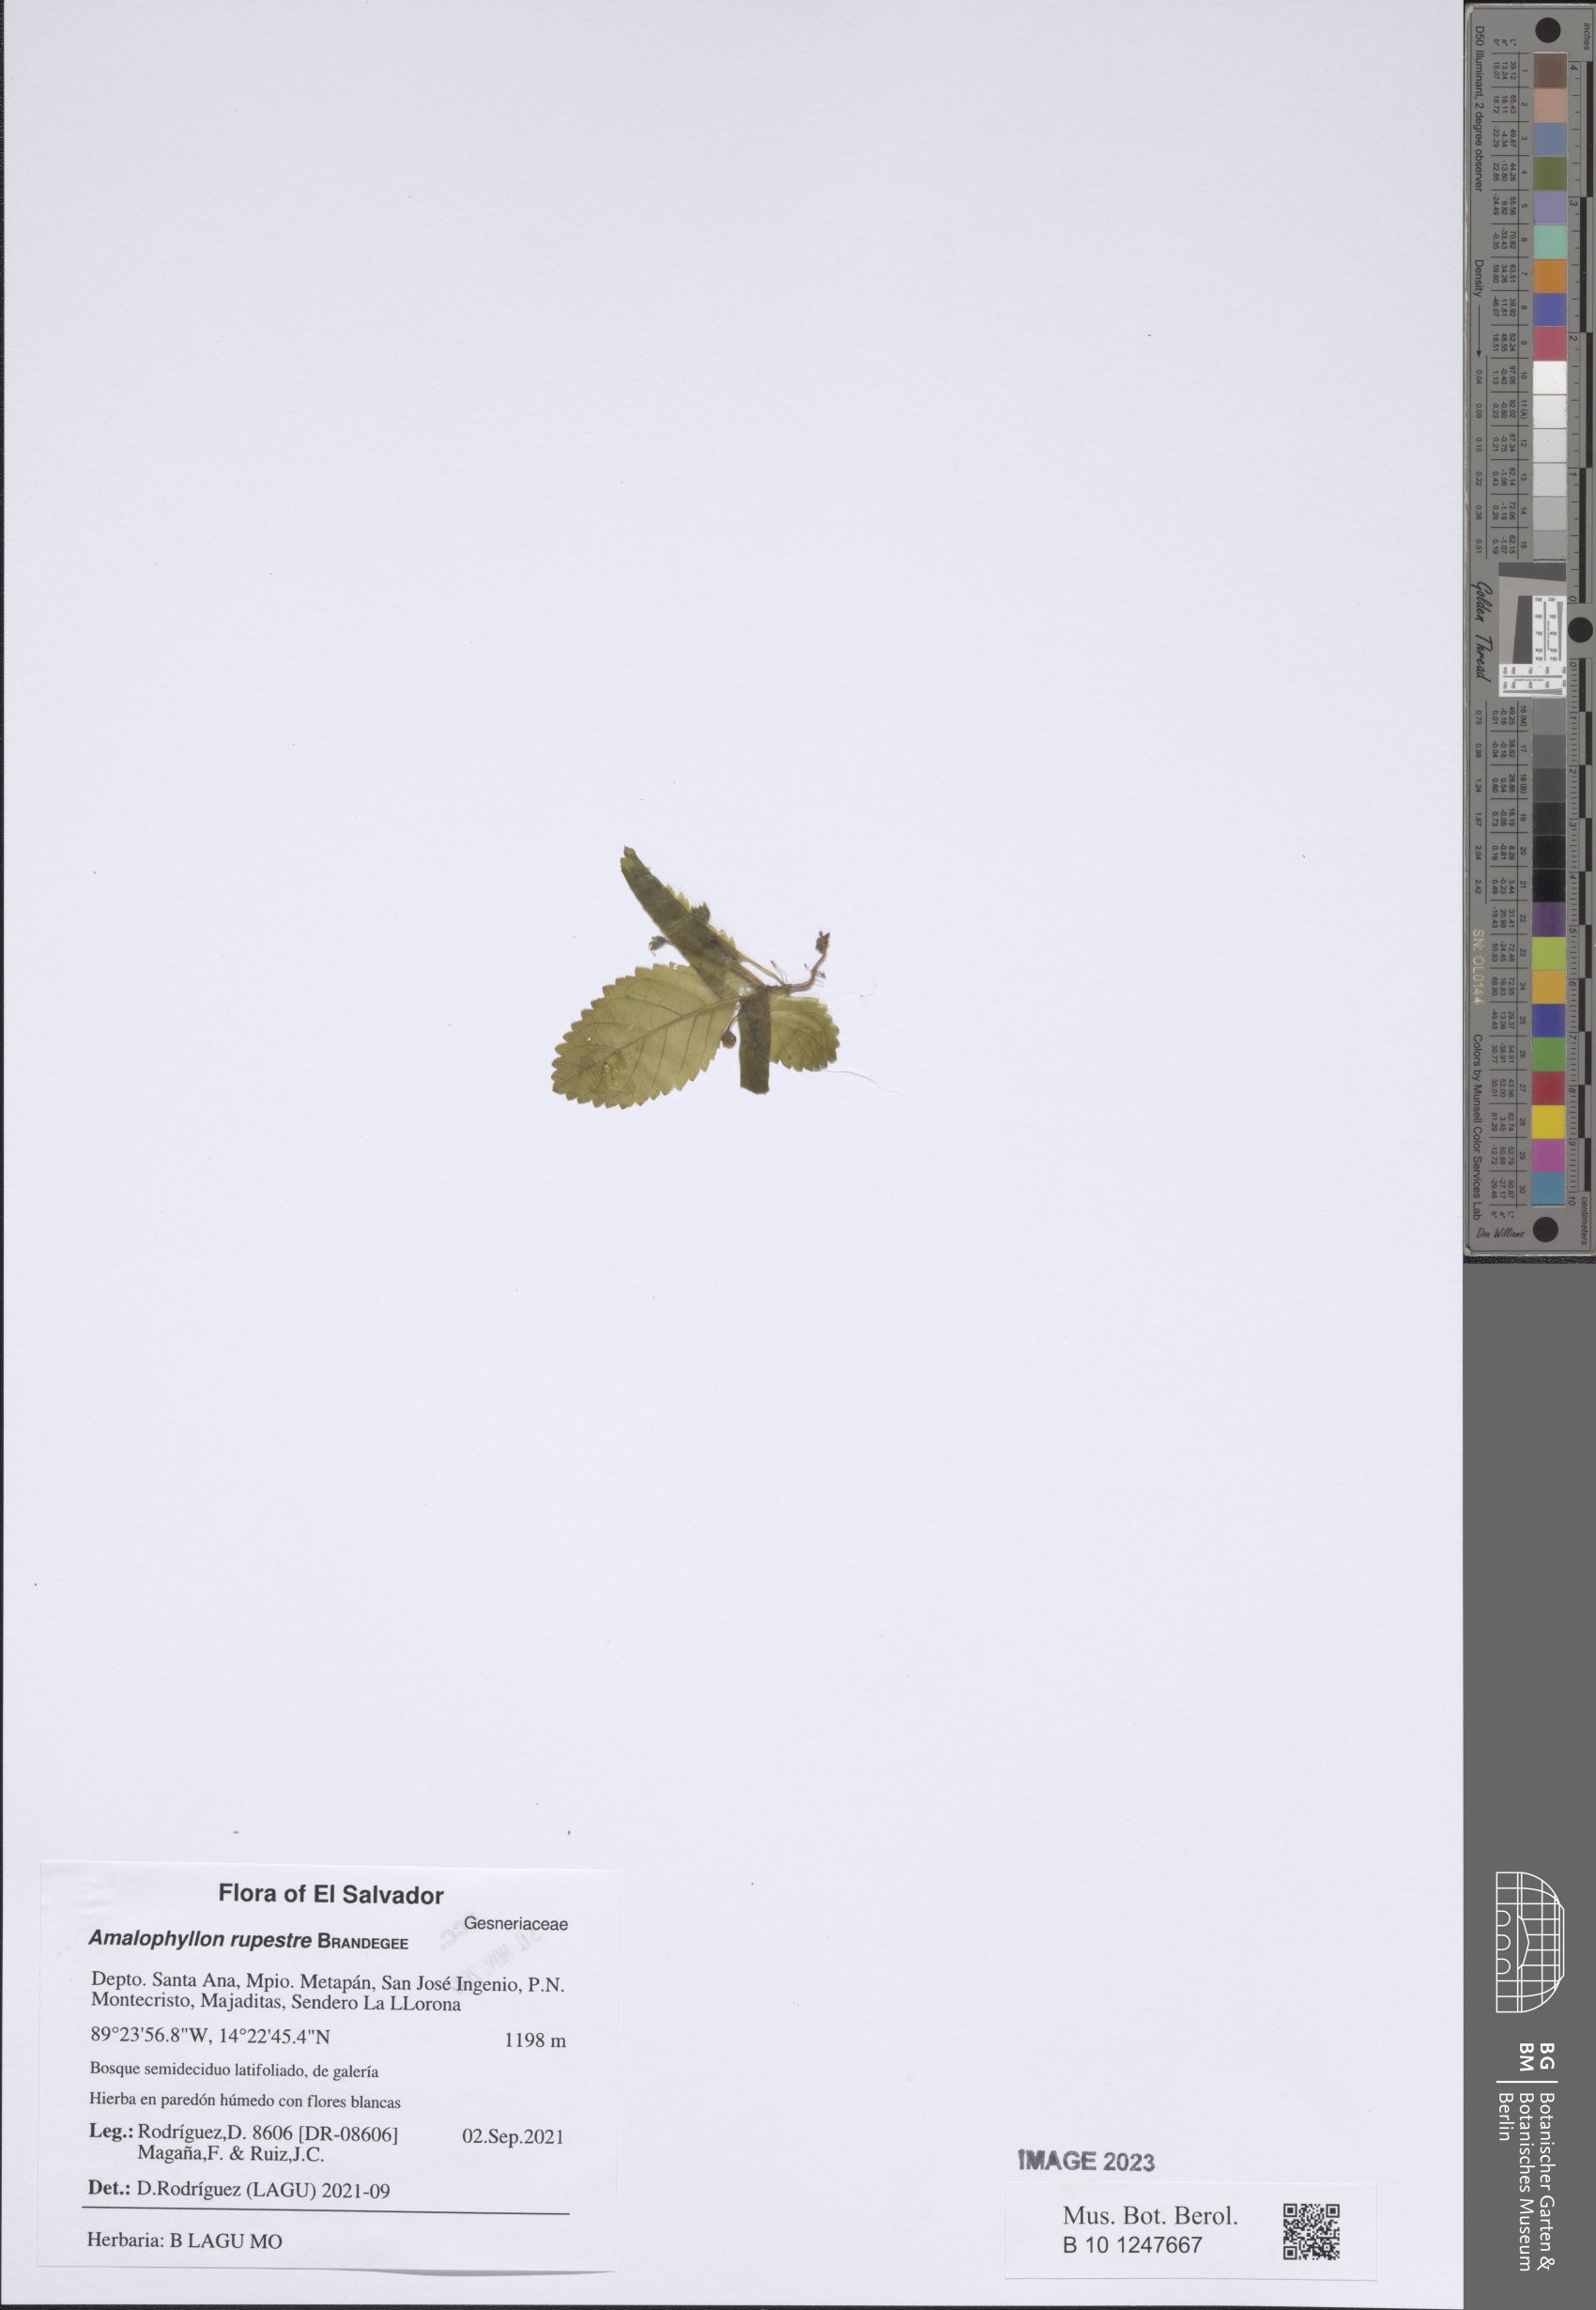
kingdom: Plantae
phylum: Tracheophyta
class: Magnoliopsida
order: Lamiales
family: Gesneriaceae
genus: Amalophyllon
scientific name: Amalophyllon rupestre
